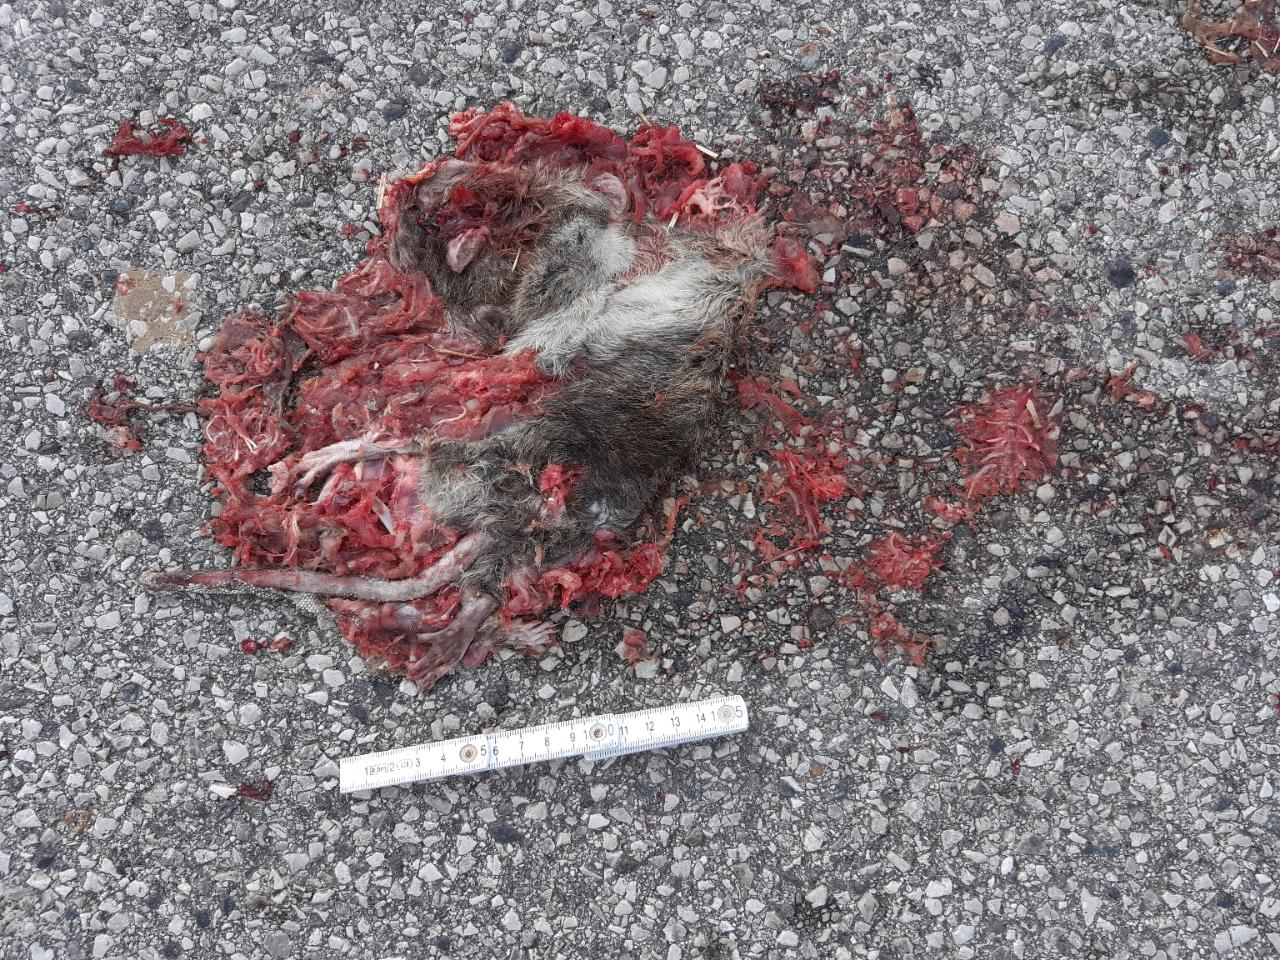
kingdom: Animalia
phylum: Chordata
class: Mammalia
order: Rodentia
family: Muridae
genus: Rattus
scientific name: Rattus
